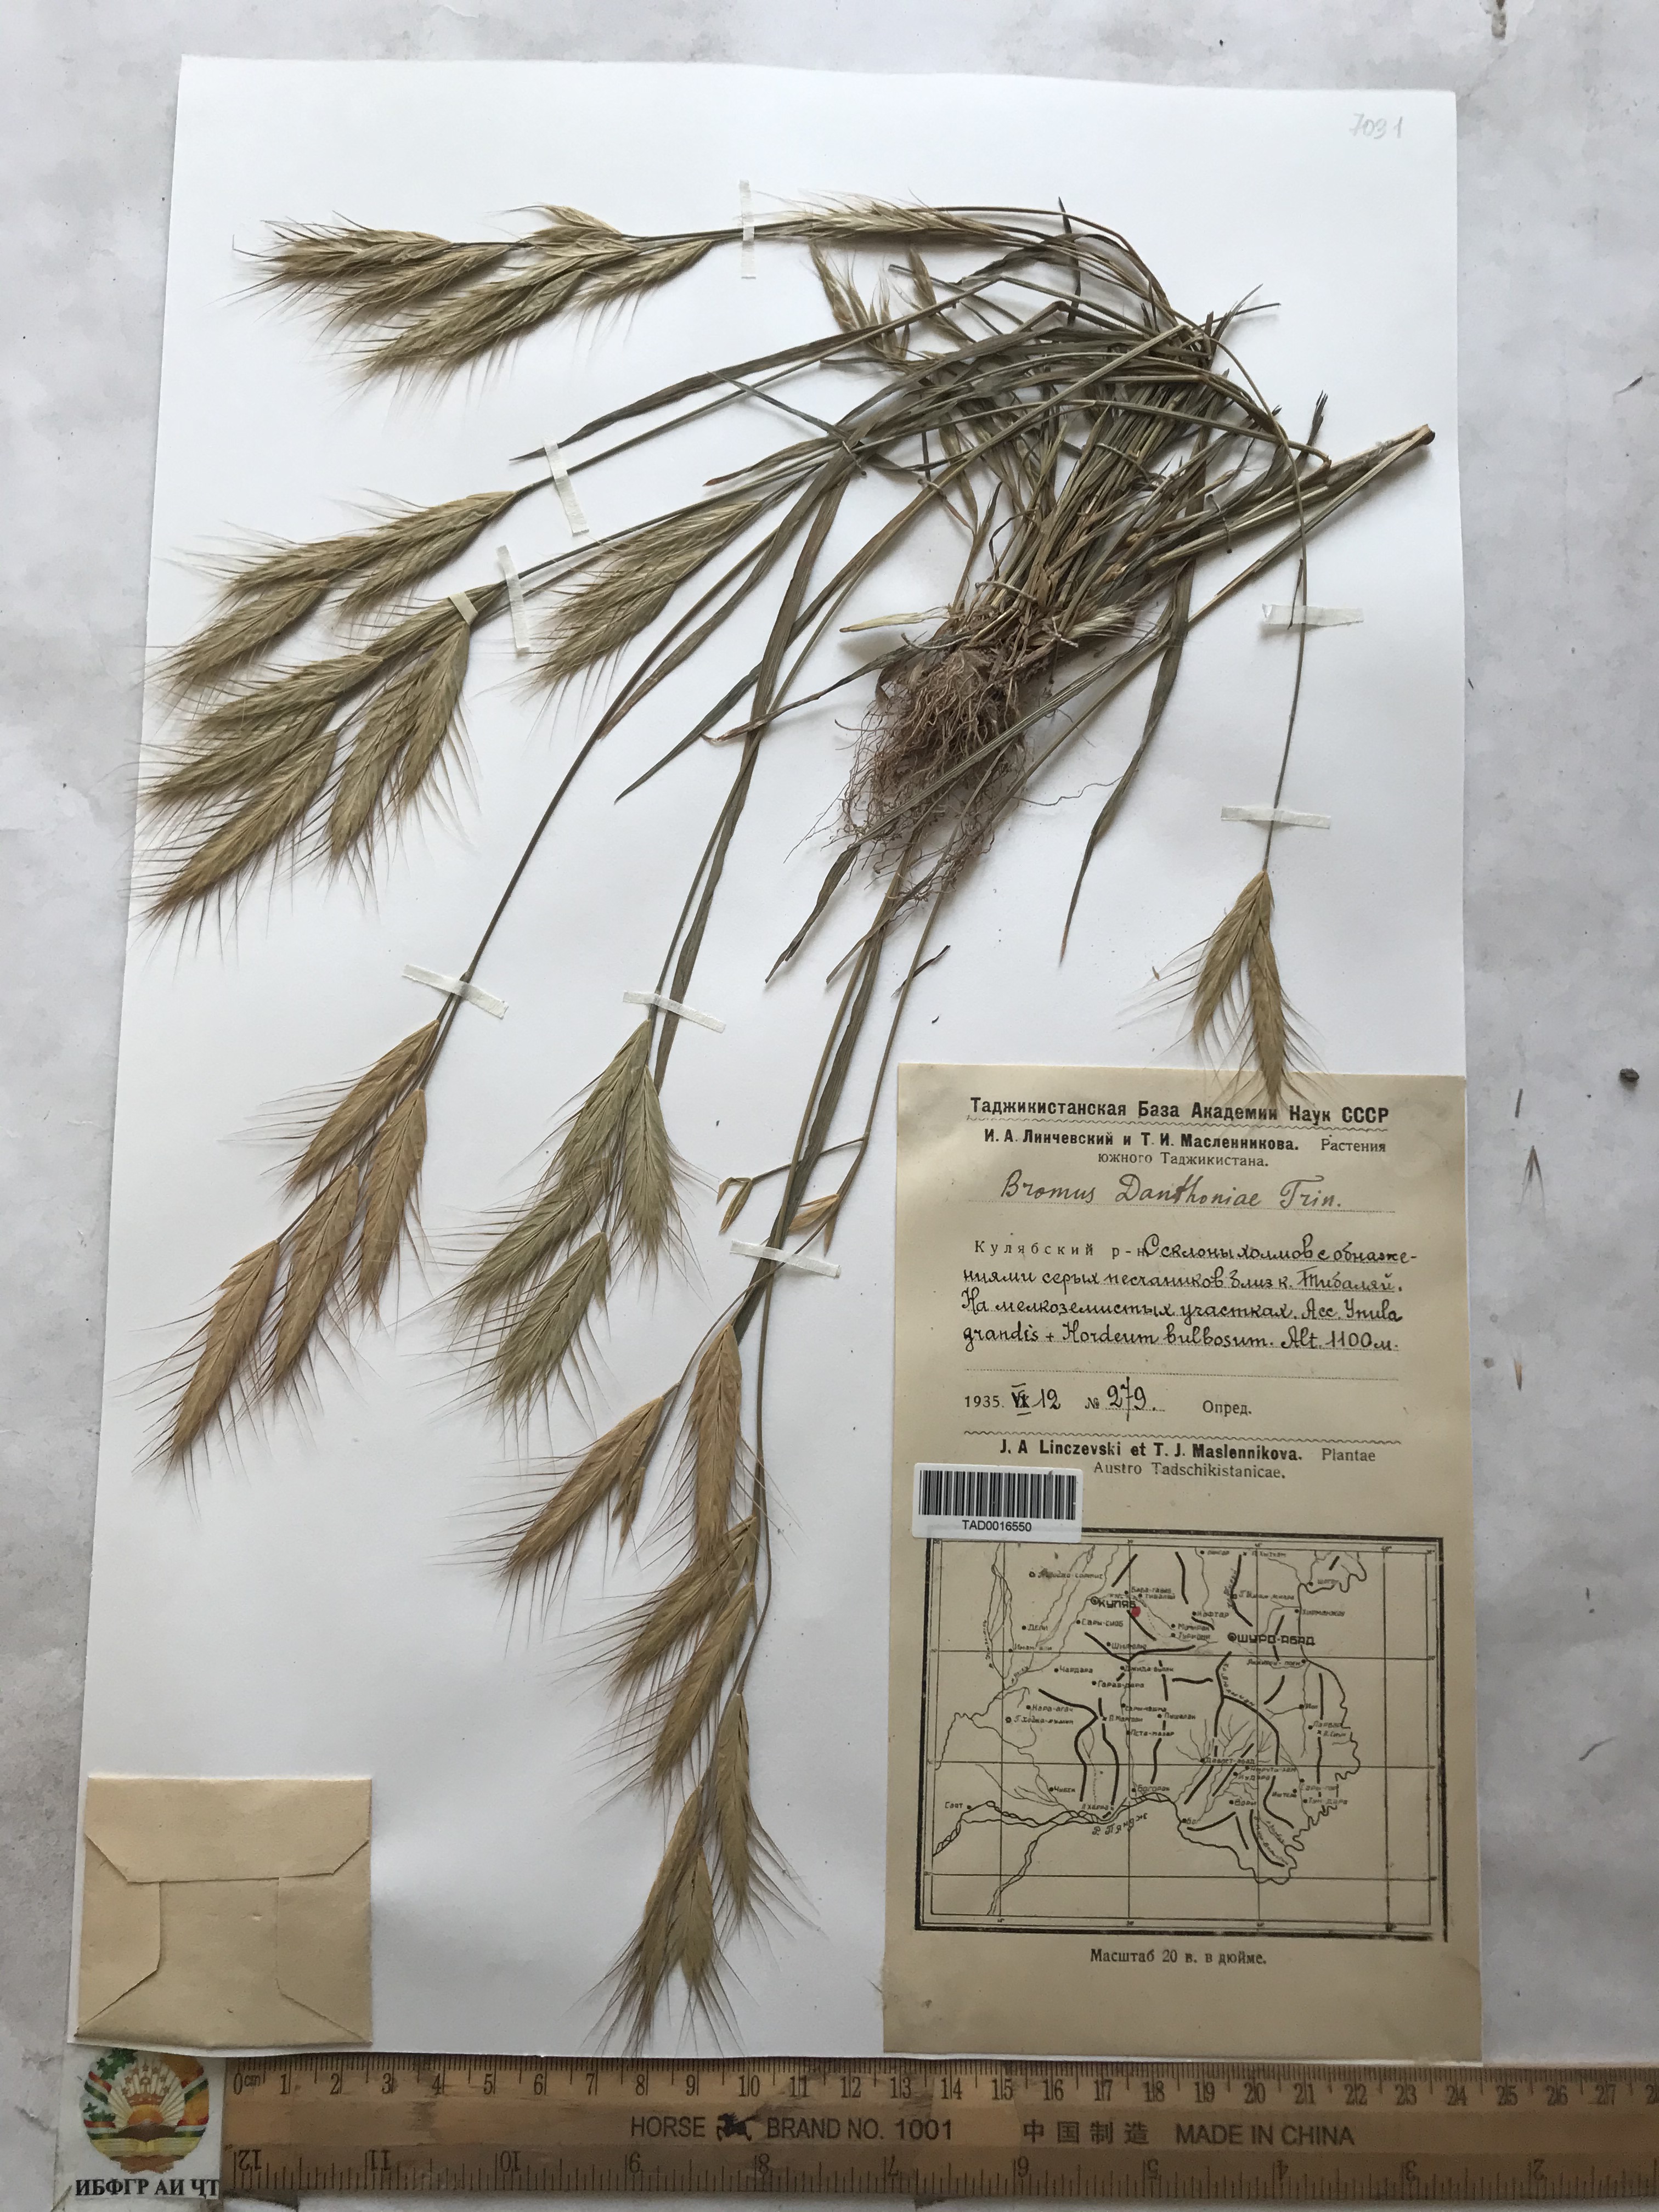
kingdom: Plantae
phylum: Tracheophyta
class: Liliopsida
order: Poales
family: Poaceae
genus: Bromus
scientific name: Bromus danthoniae
